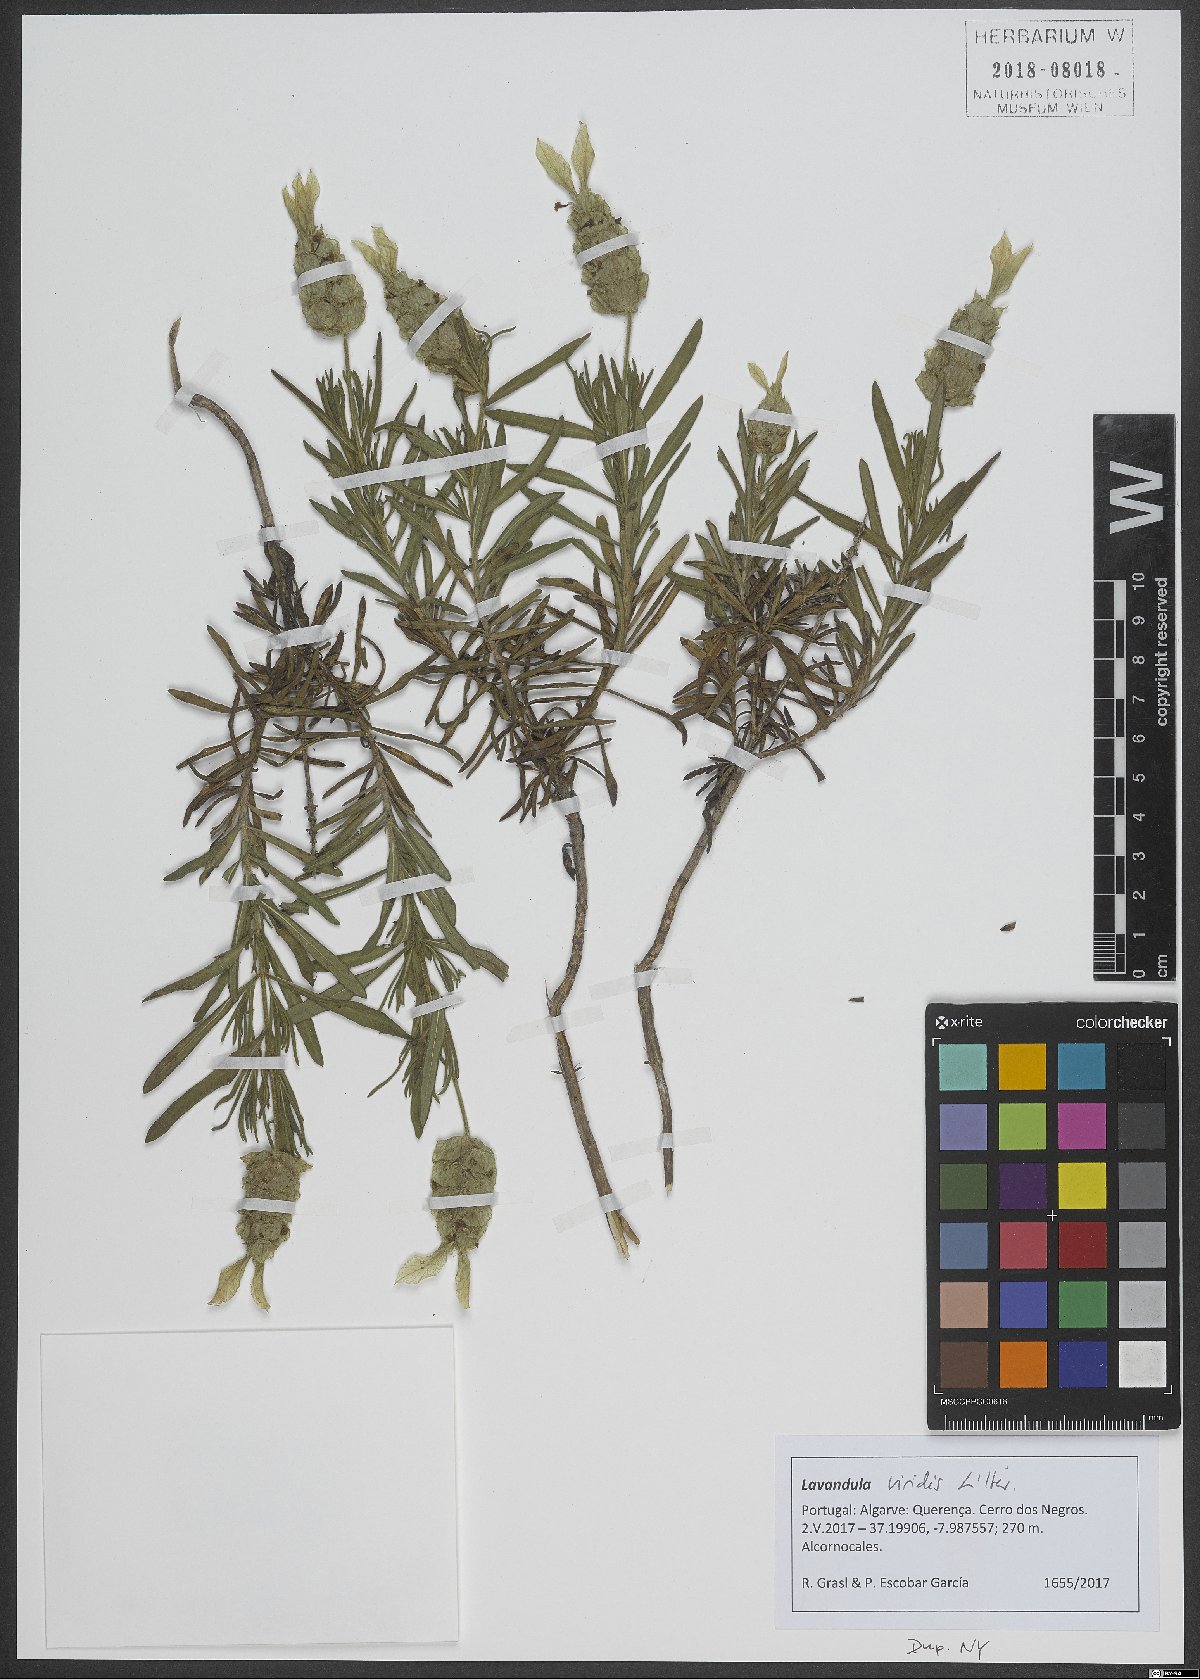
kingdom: Plantae
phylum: Tracheophyta
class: Magnoliopsida
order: Lamiales
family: Lamiaceae
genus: Lavandula
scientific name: Lavandula viridis
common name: Green spanish lavender
